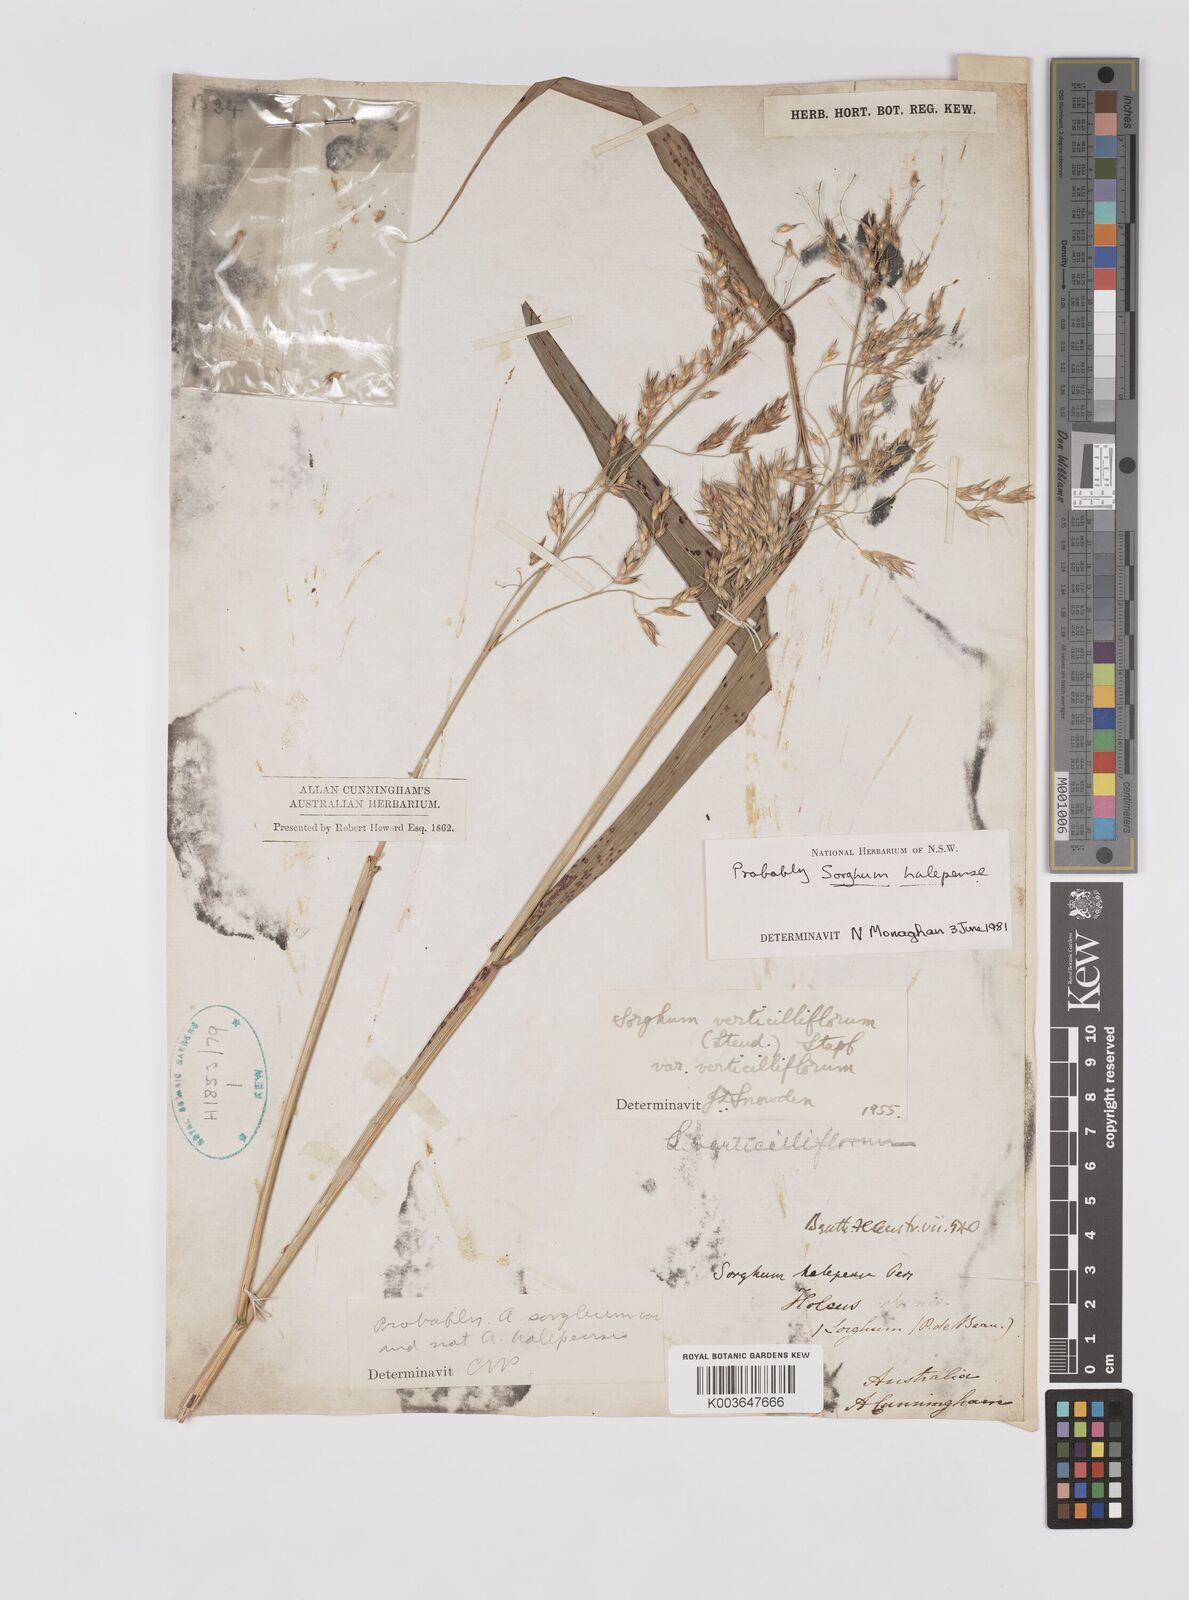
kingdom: Plantae
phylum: Tracheophyta
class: Liliopsida
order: Poales
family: Poaceae
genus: Sorghum
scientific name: Sorghum halepense
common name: Johnson-grass
